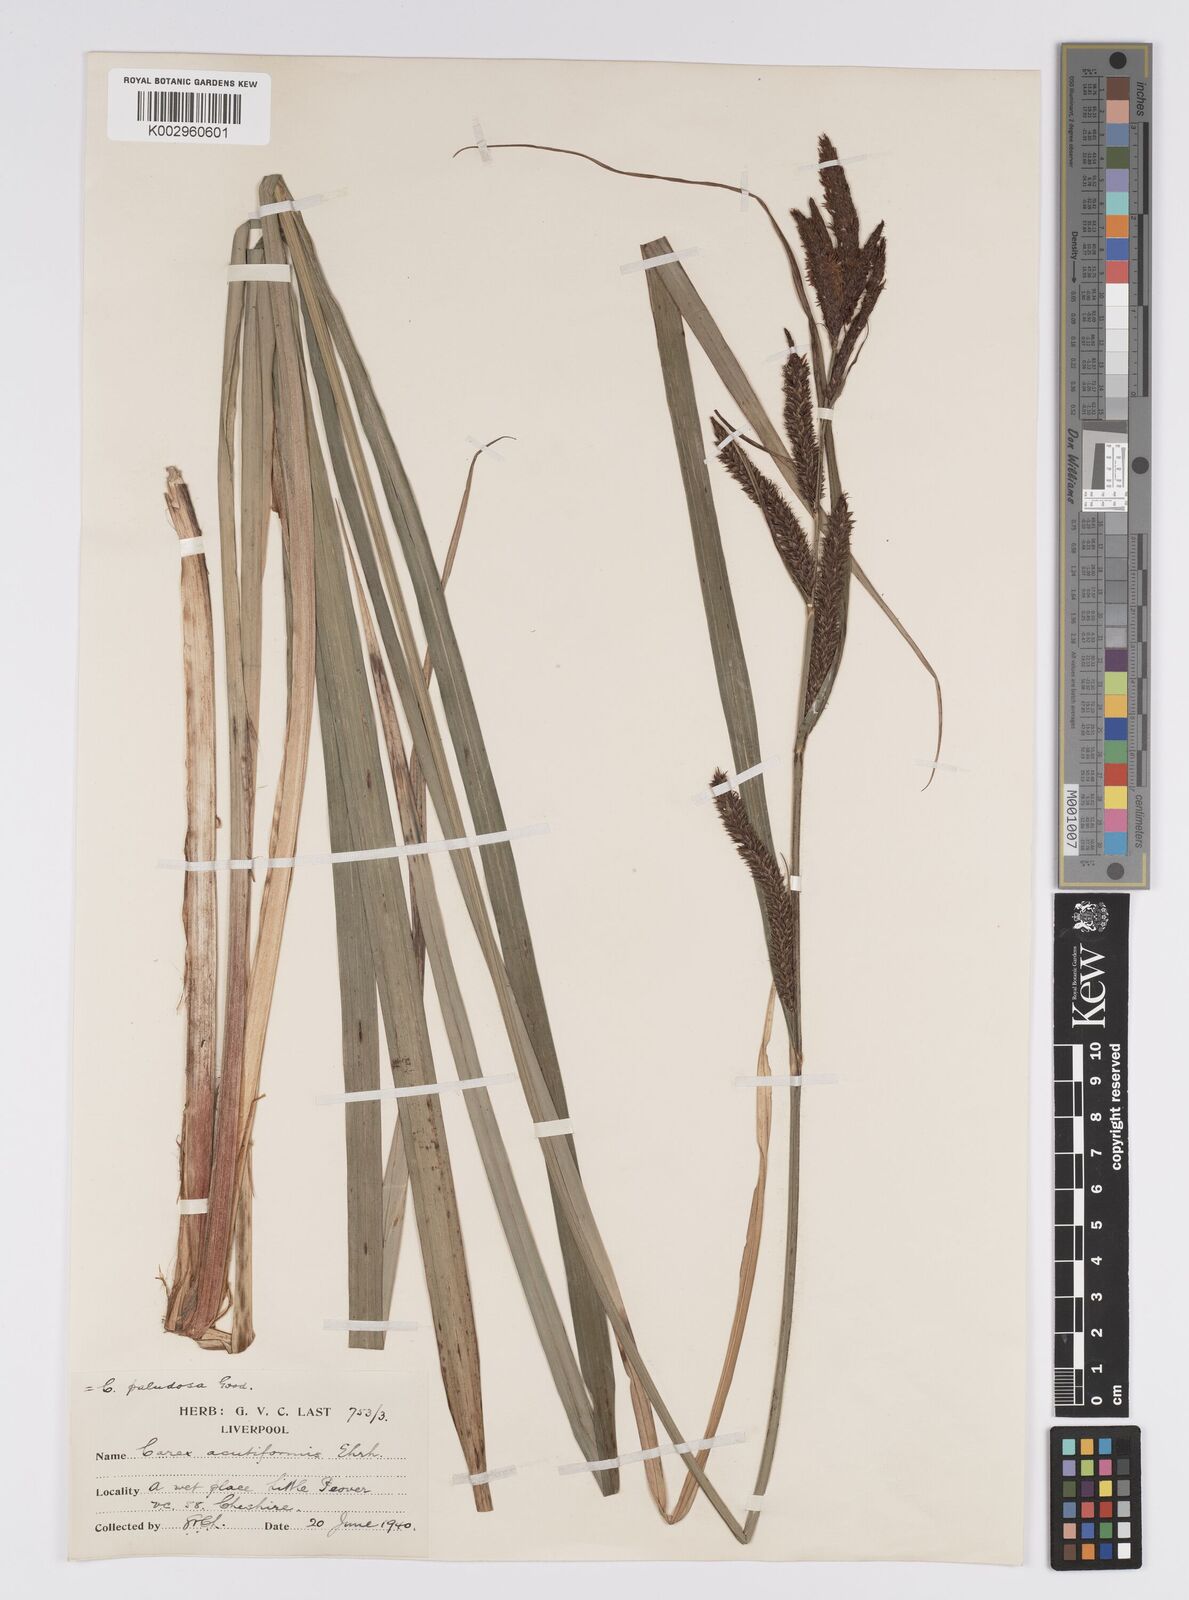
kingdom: Plantae
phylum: Tracheophyta
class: Liliopsida
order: Poales
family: Cyperaceae
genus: Carex
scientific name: Carex acutiformis
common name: Lesser pond-sedge
